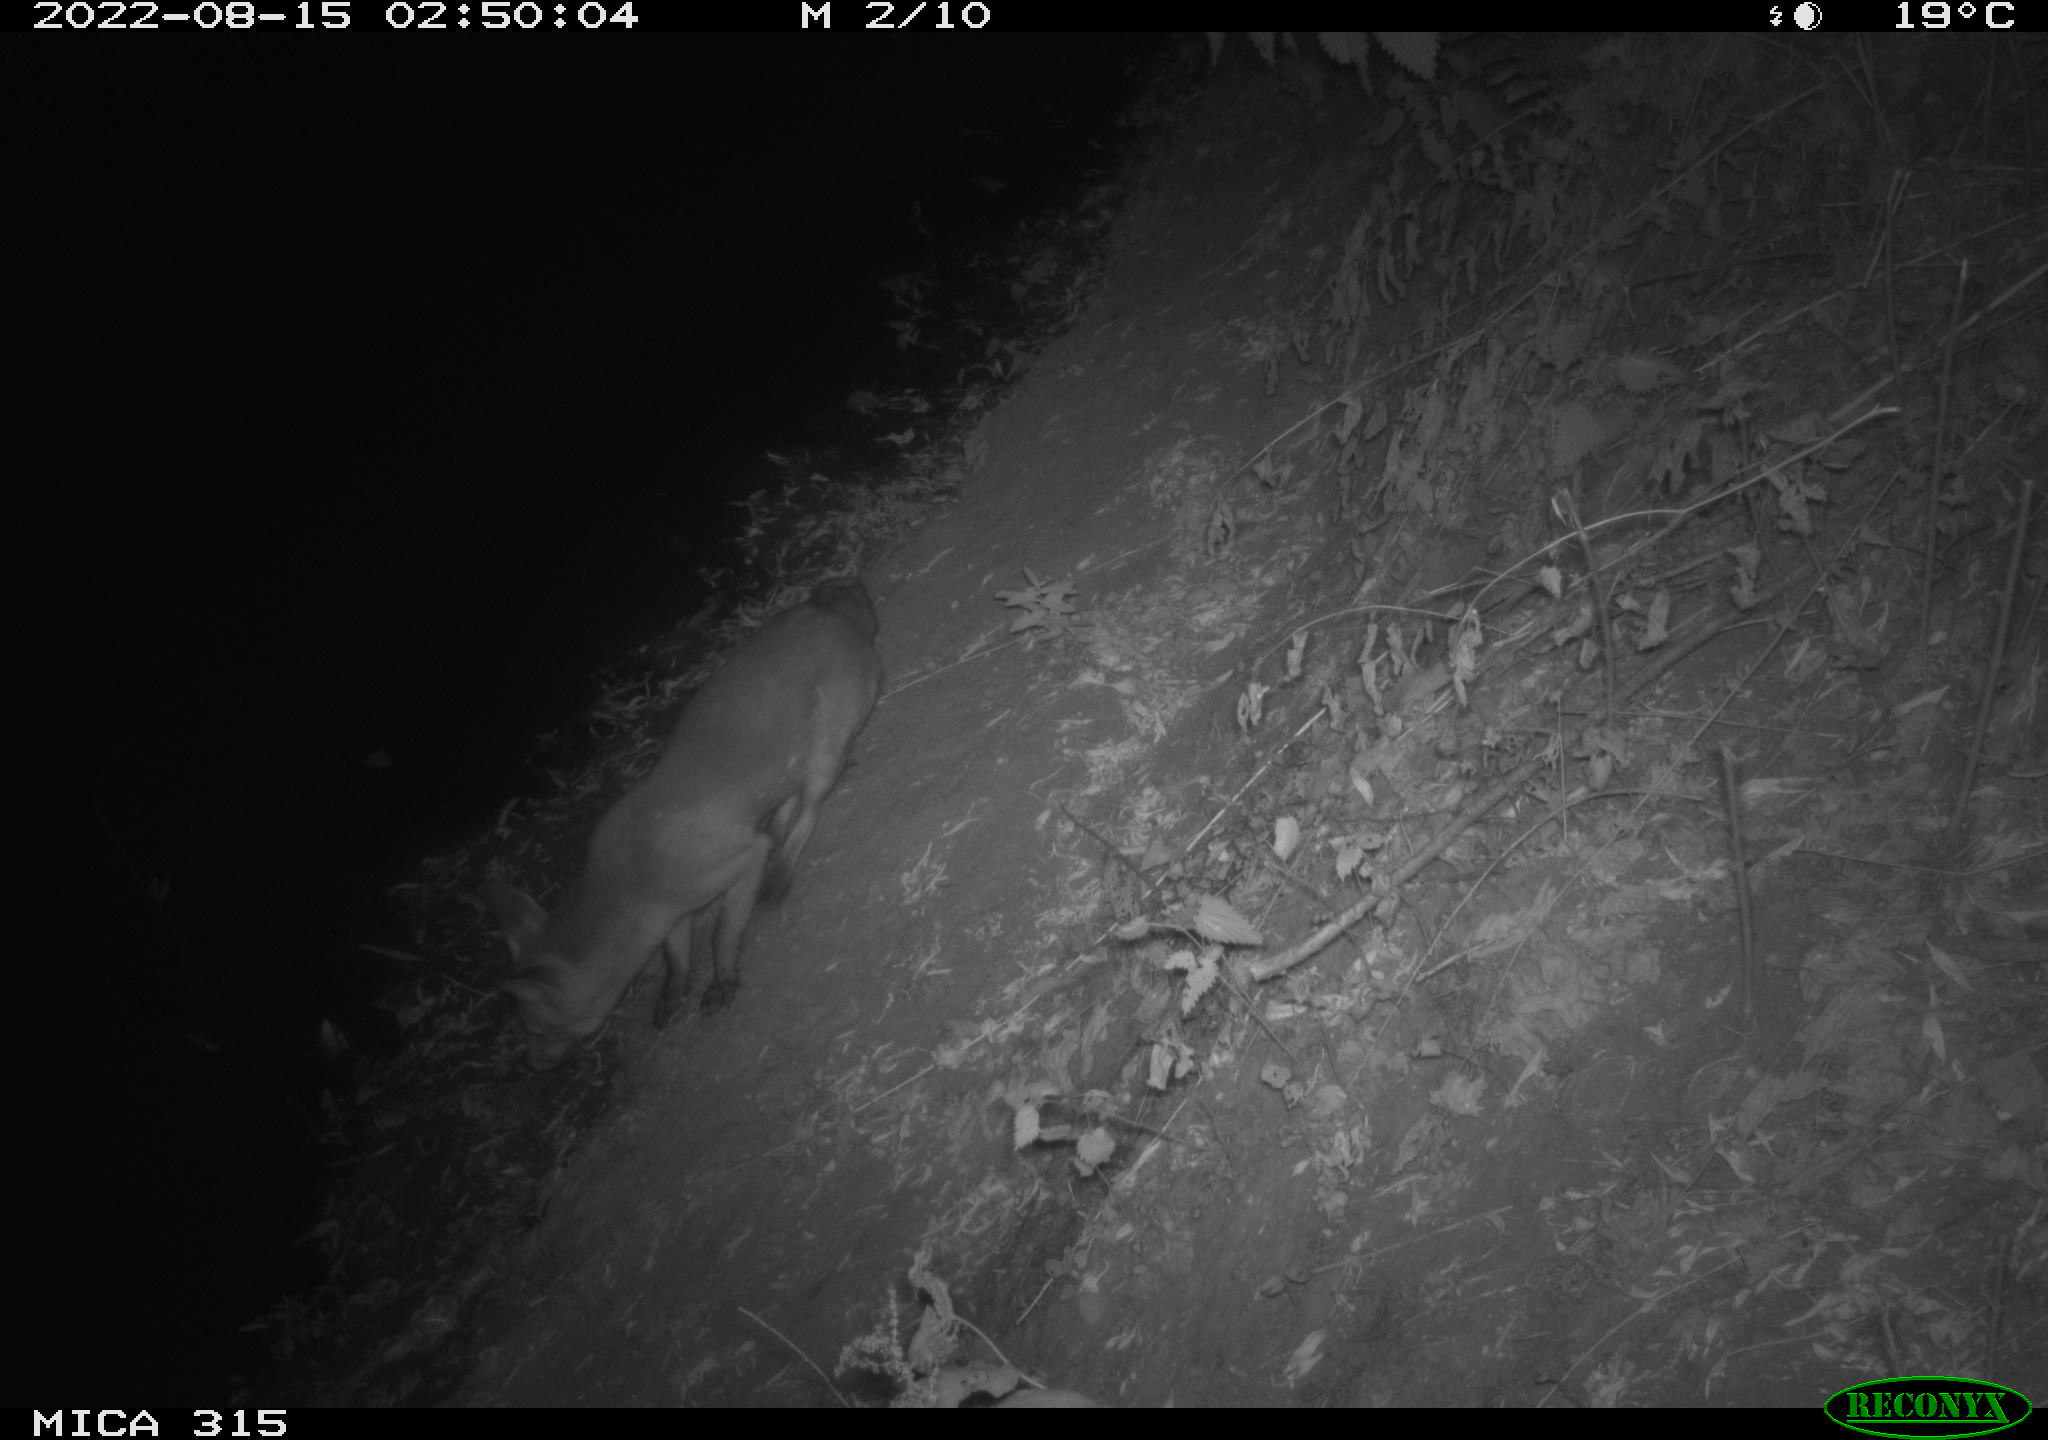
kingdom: Animalia
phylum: Chordata
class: Mammalia
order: Carnivora
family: Canidae
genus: Vulpes
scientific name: Vulpes vulpes
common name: Red fox
